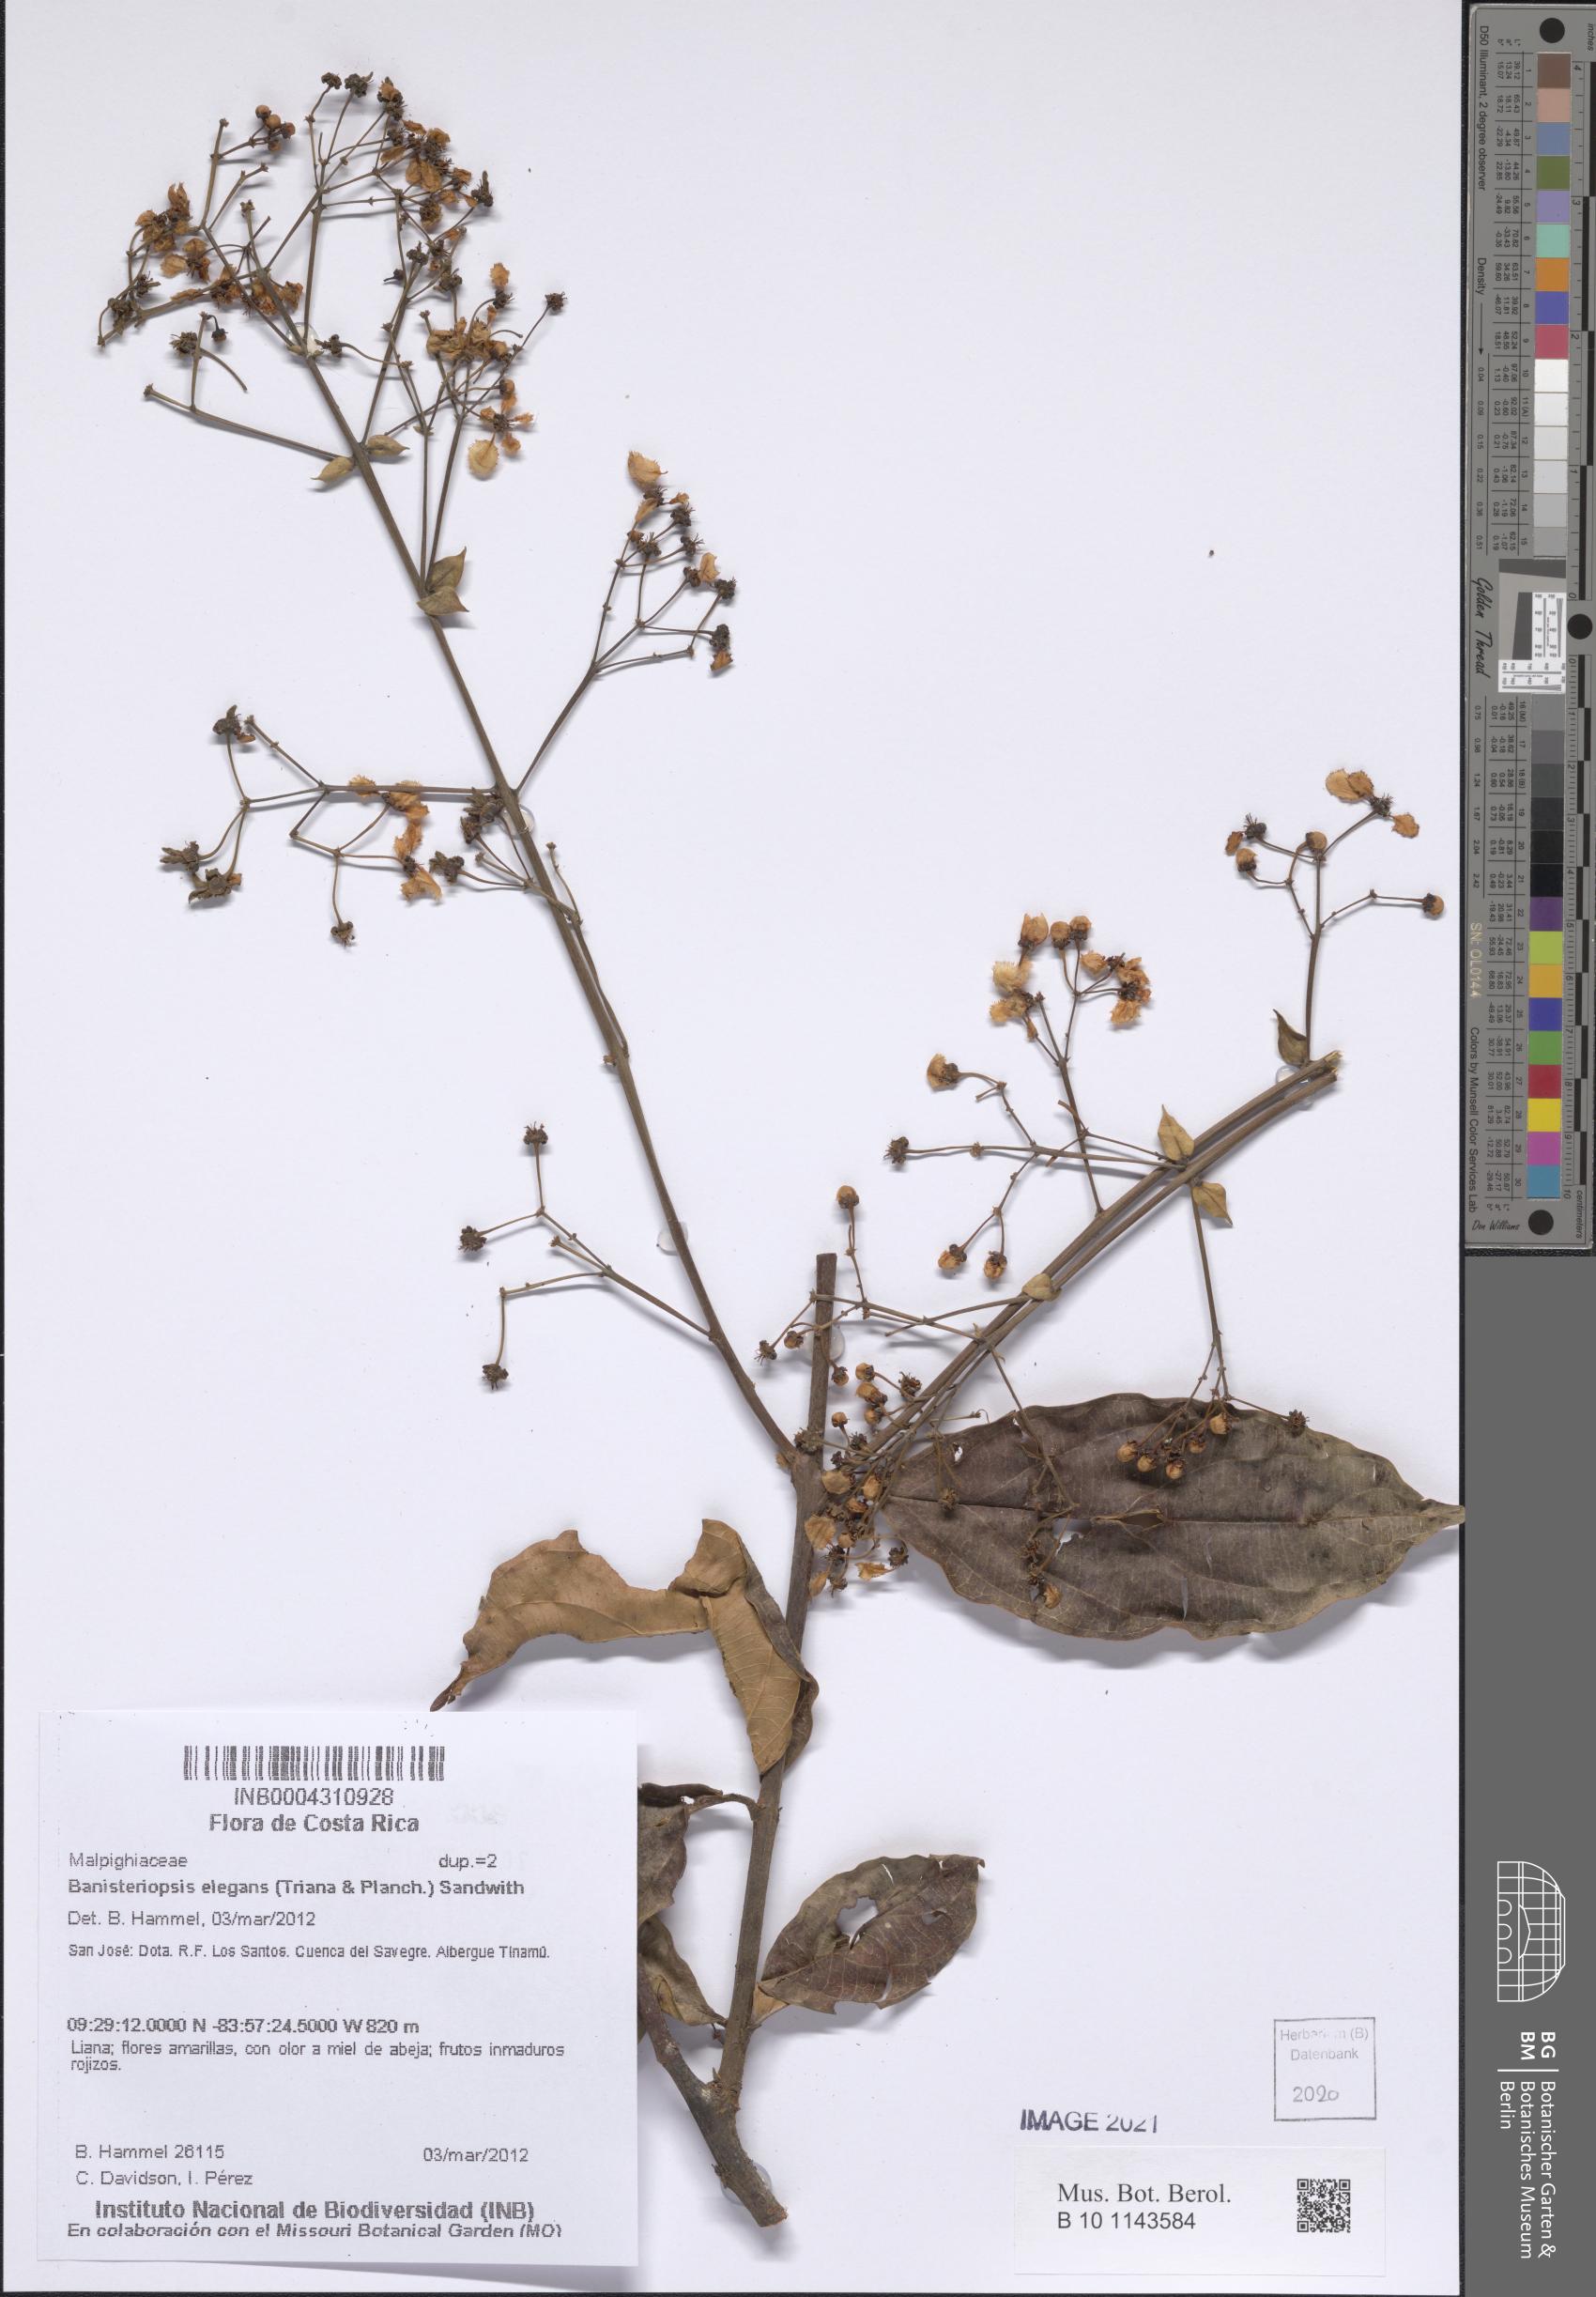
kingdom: Plantae
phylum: Tracheophyta
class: Magnoliopsida
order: Malpighiales
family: Malpighiaceae
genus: Banisteriopsis
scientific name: Banisteriopsis elegans
